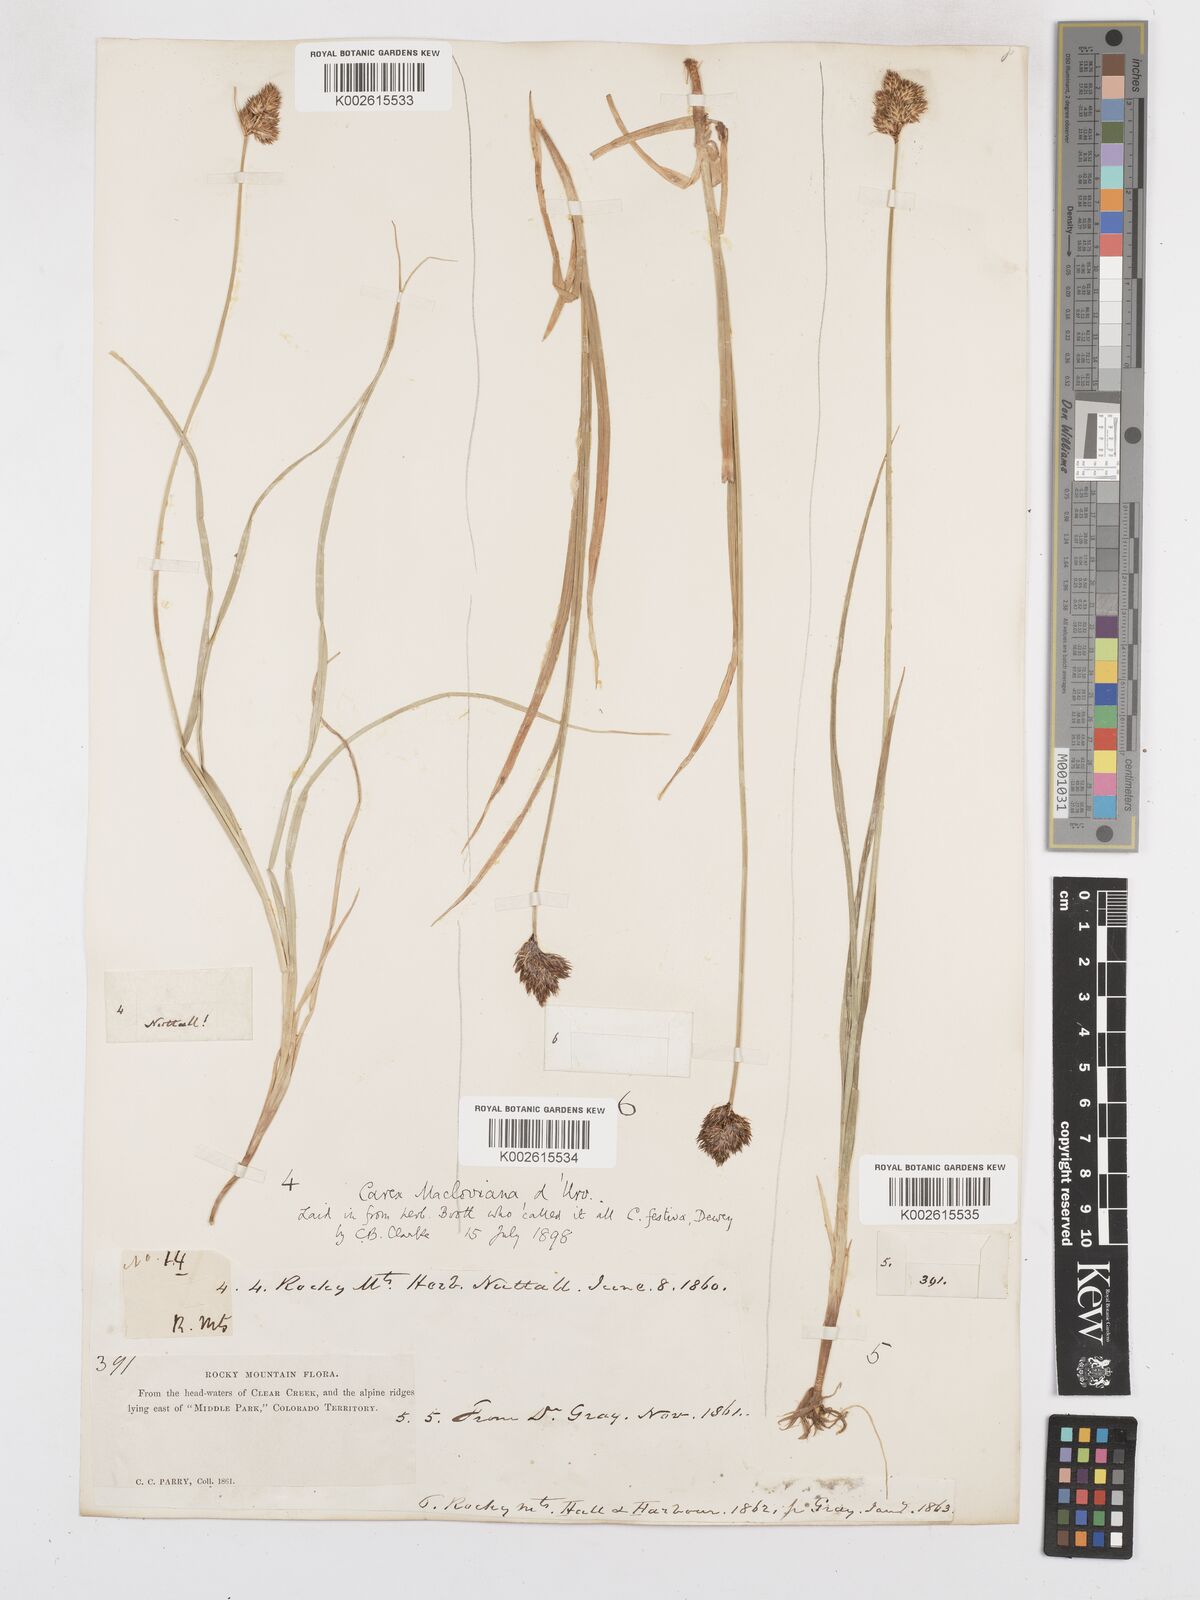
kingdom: Plantae
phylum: Tracheophyta
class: Liliopsida
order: Poales
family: Cyperaceae
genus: Carex
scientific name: Carex subfusca
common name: Brown sedge
